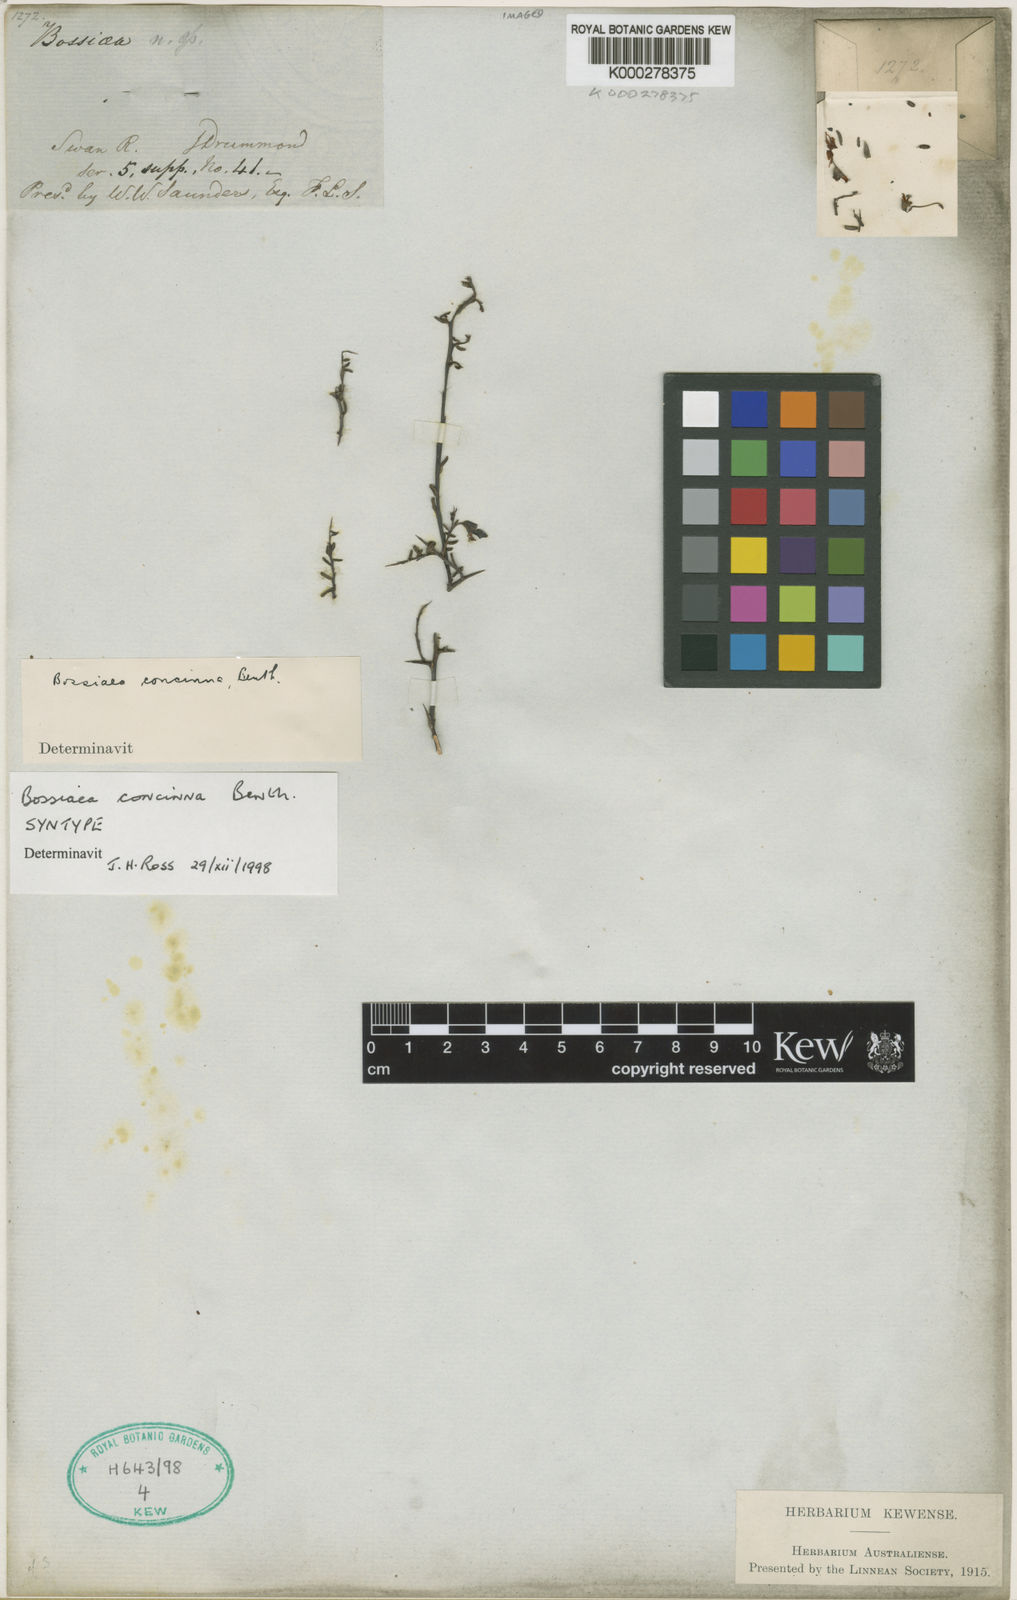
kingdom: Plantae
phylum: Tracheophyta
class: Magnoliopsida
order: Fabales
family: Fabaceae
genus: Bossiaea
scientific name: Bossiaea concinna
